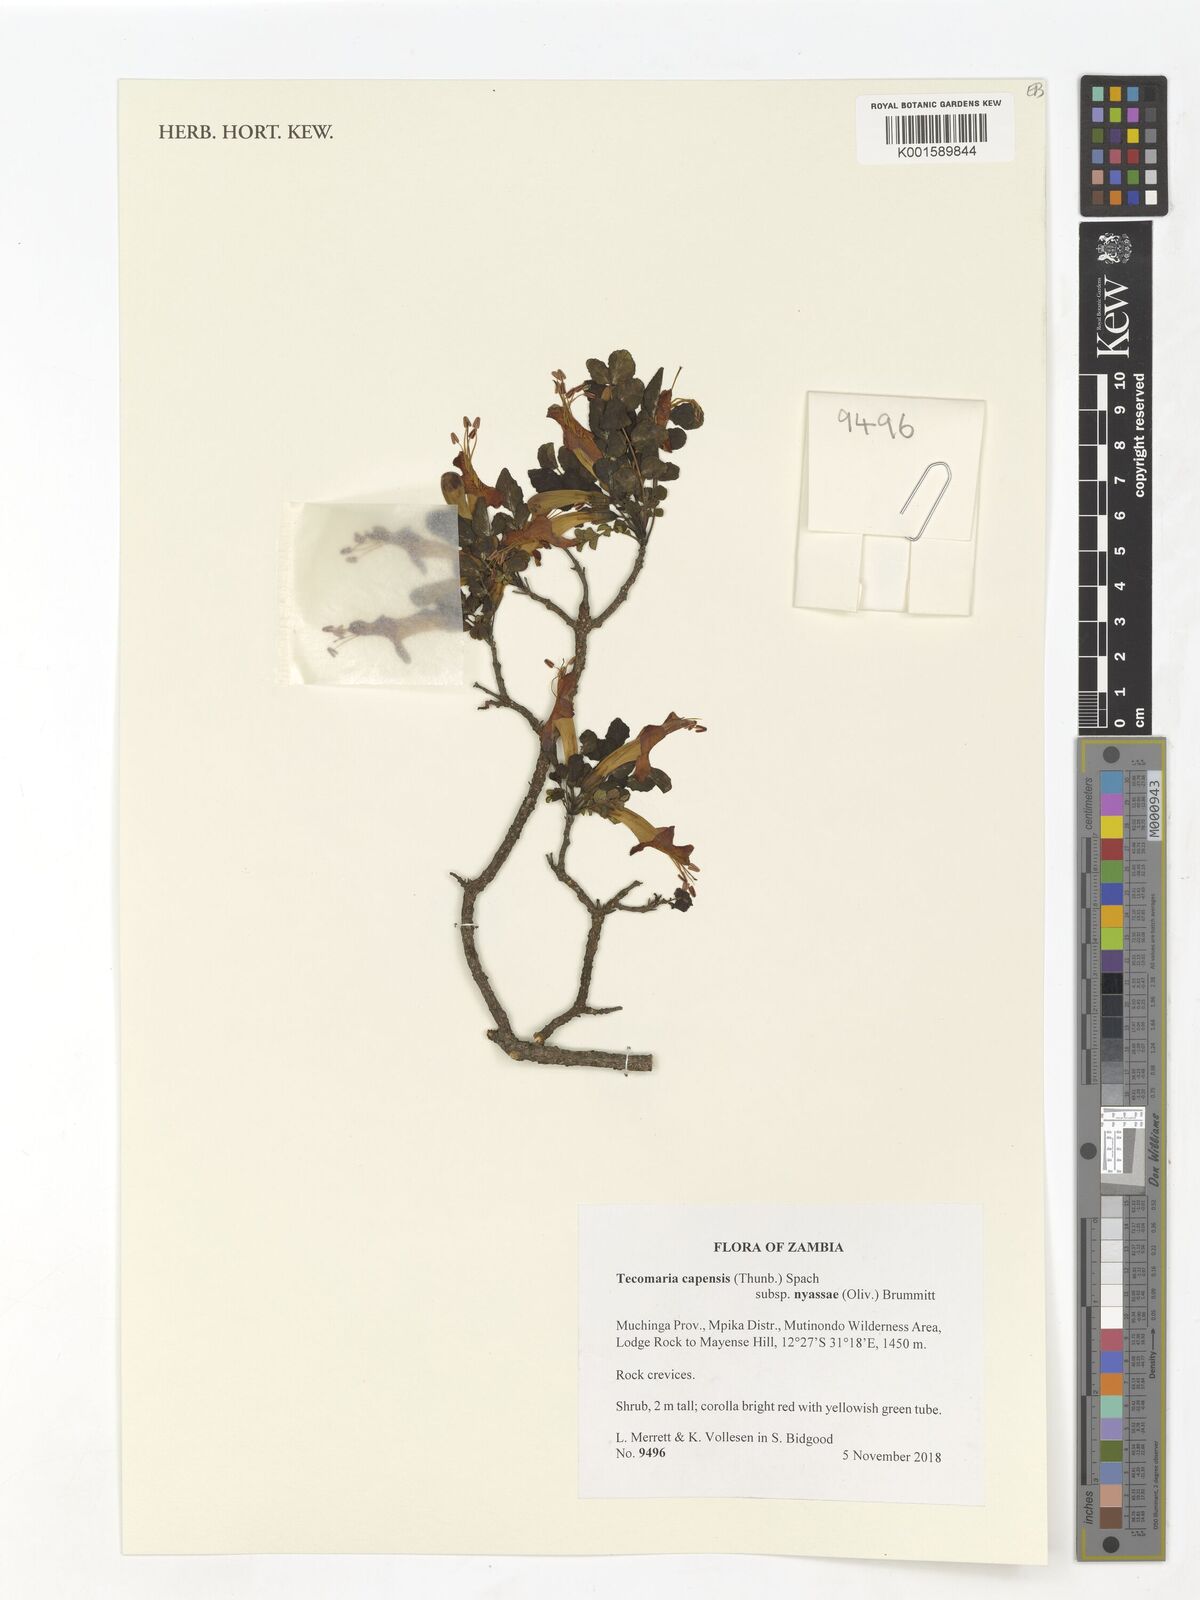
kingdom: Plantae
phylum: Tracheophyta
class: Magnoliopsida
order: Lamiales
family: Bignoniaceae
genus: Tecomaria
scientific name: Tecomaria nyassae
